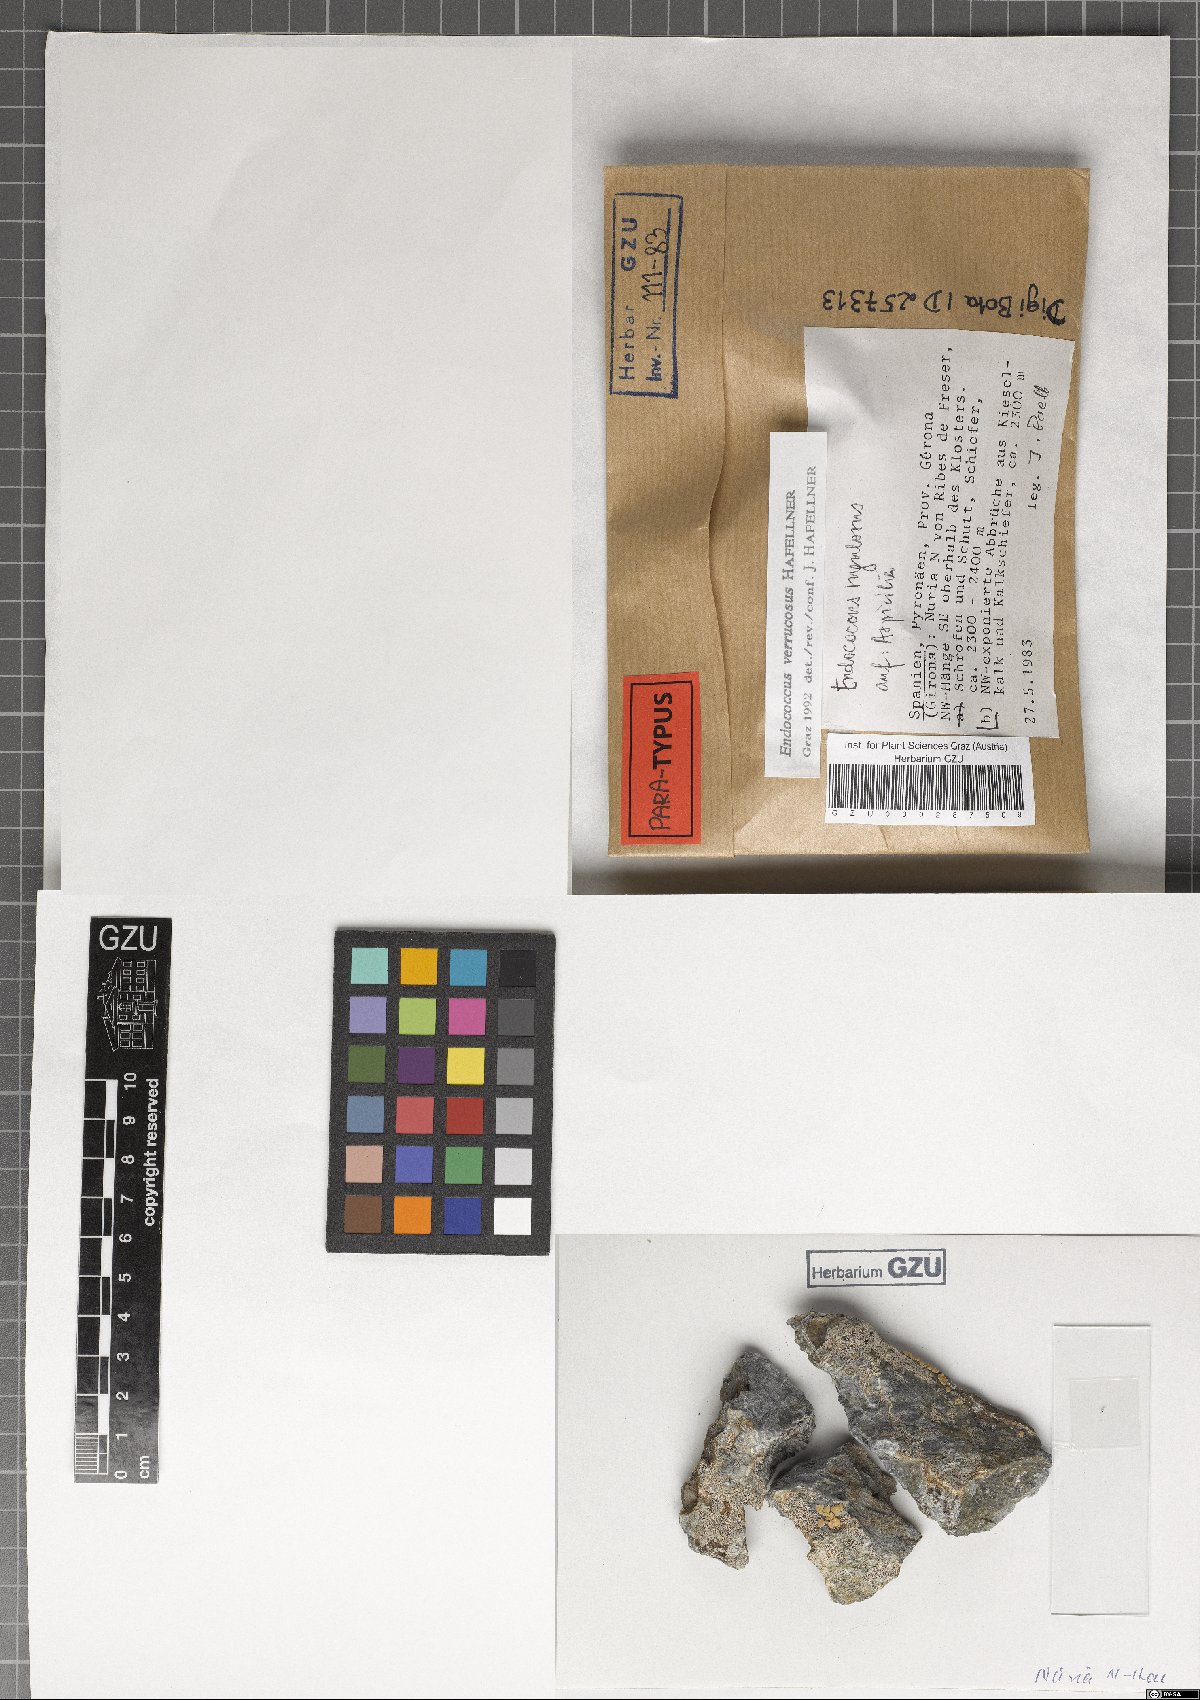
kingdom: Fungi
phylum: Ascomycota
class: Dothideomycetes
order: Dothideales
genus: Endococcus
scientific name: Endococcus verrucosus
